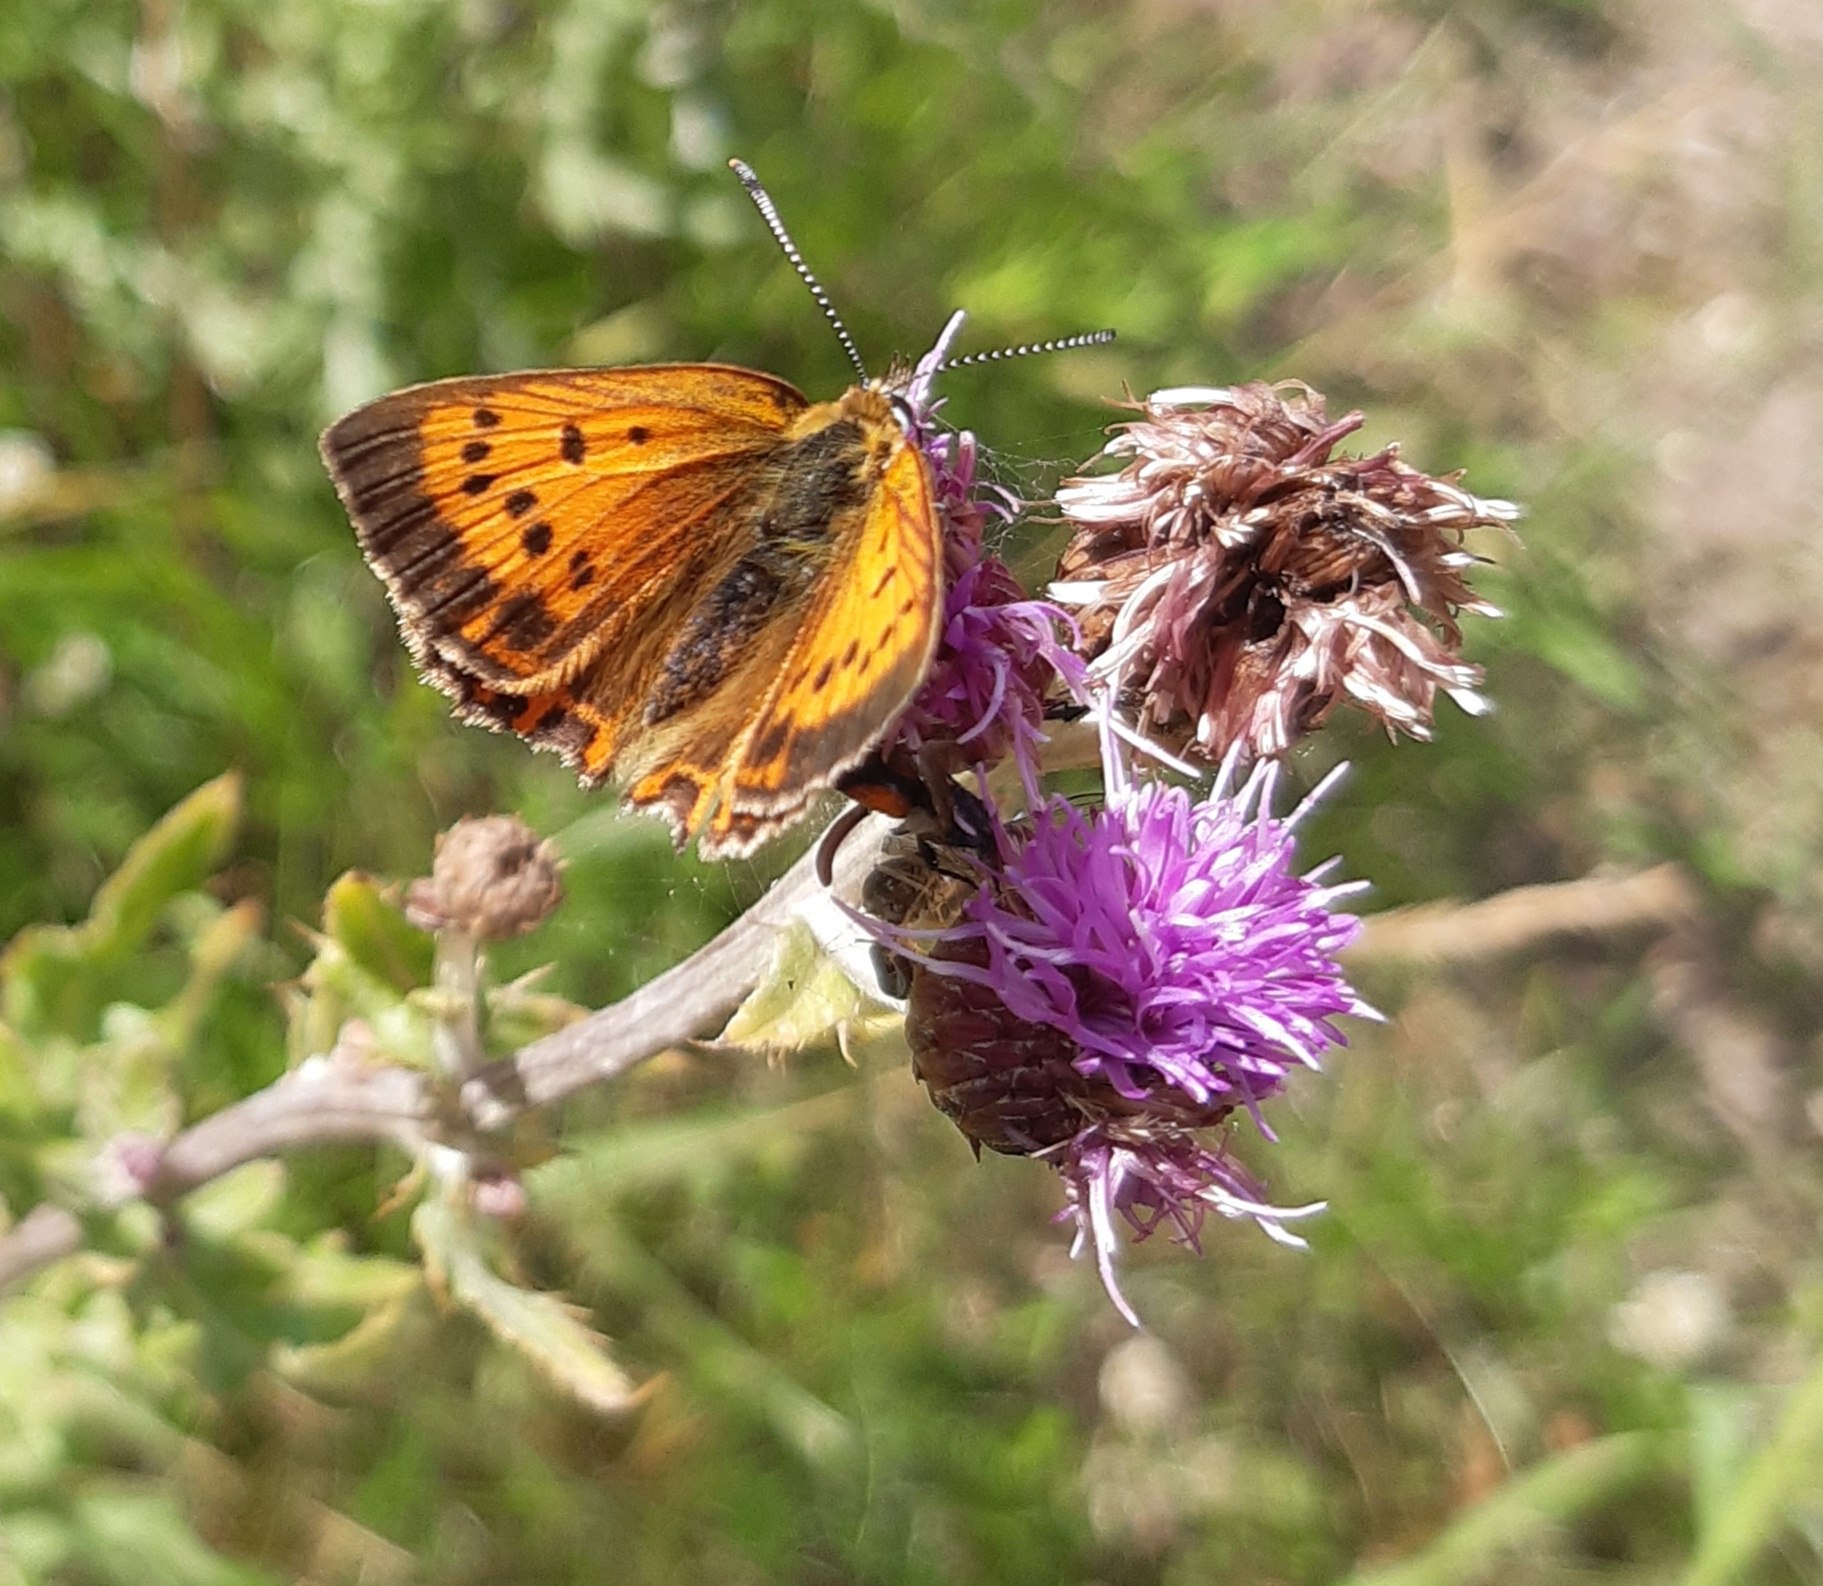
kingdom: Animalia
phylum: Arthropoda
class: Insecta
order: Lepidoptera
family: Lycaenidae
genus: Lycaena
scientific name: Lycaena virgaureae
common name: Dukatsommerfugl
